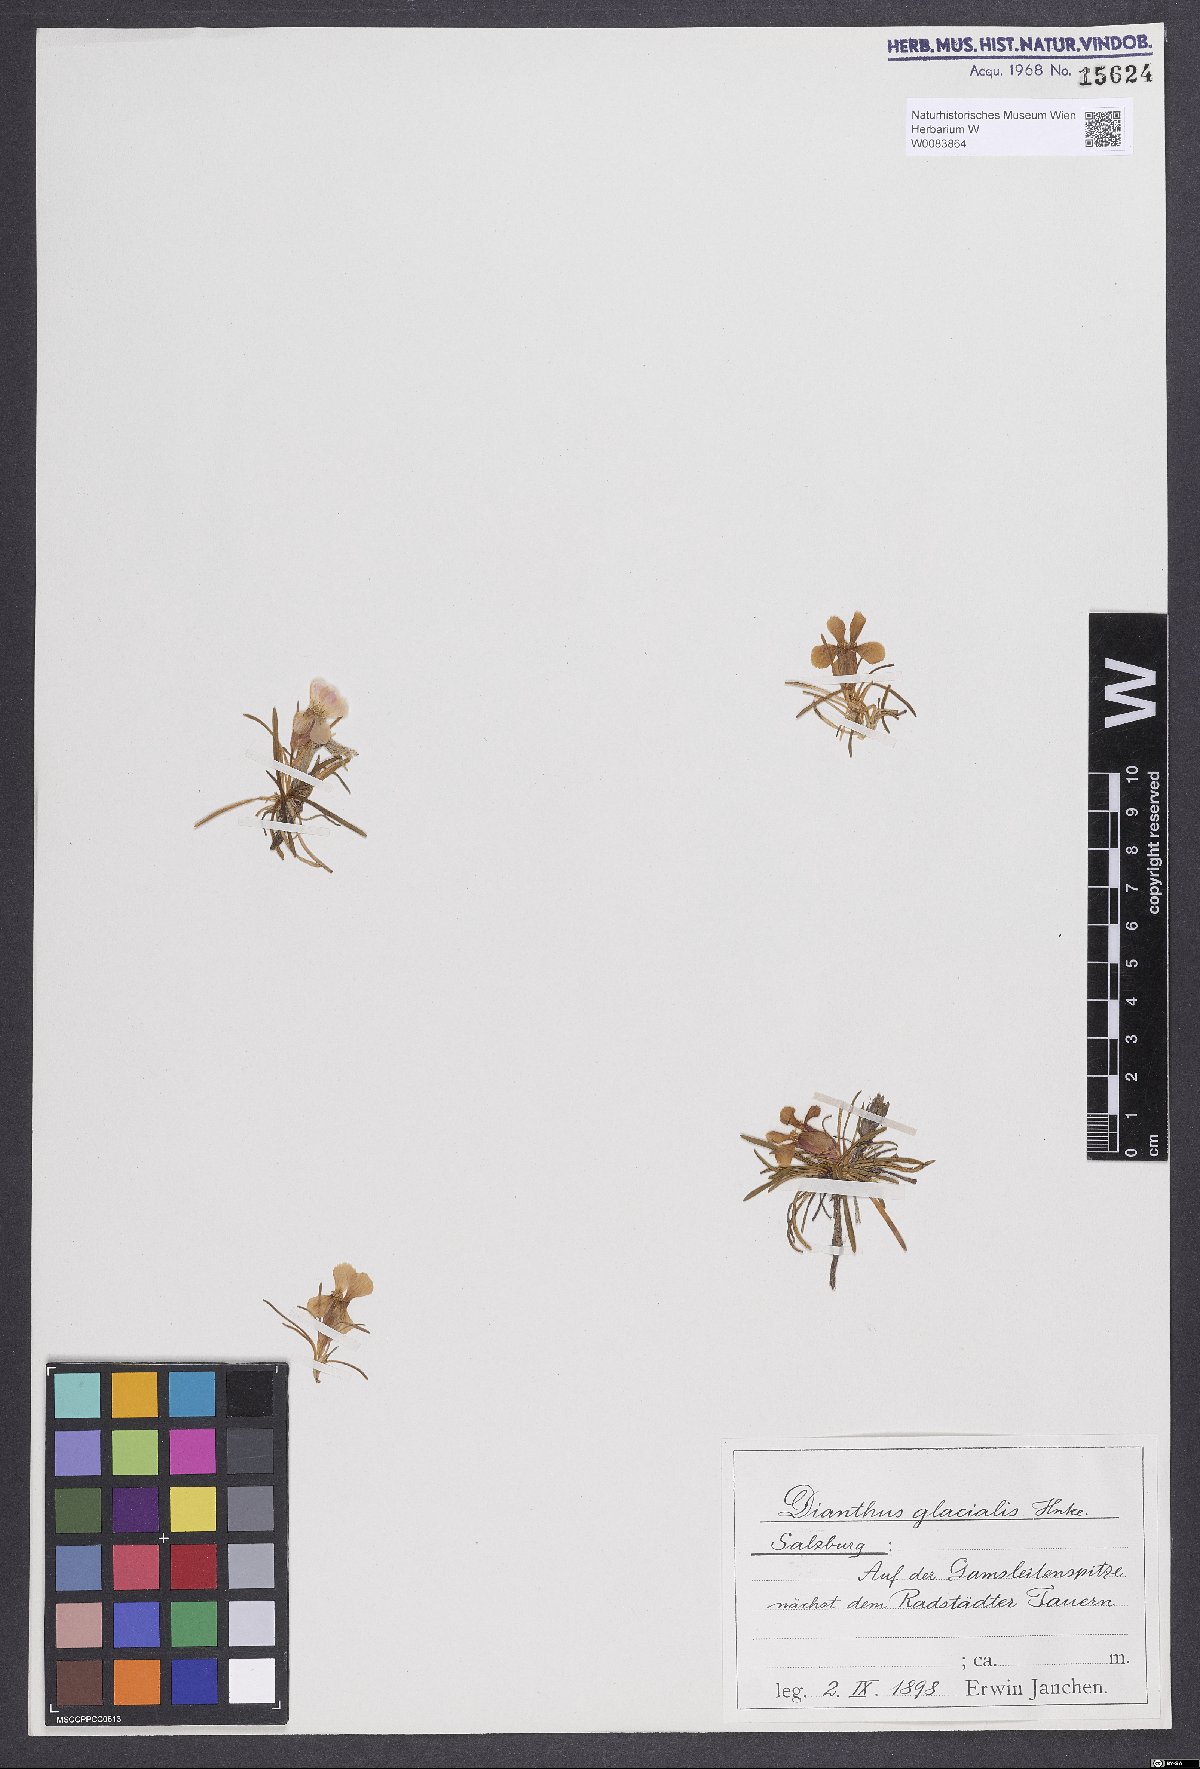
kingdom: Plantae
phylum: Tracheophyta
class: Magnoliopsida
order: Caryophyllales
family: Caryophyllaceae
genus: Dianthus
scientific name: Dianthus glacialis
